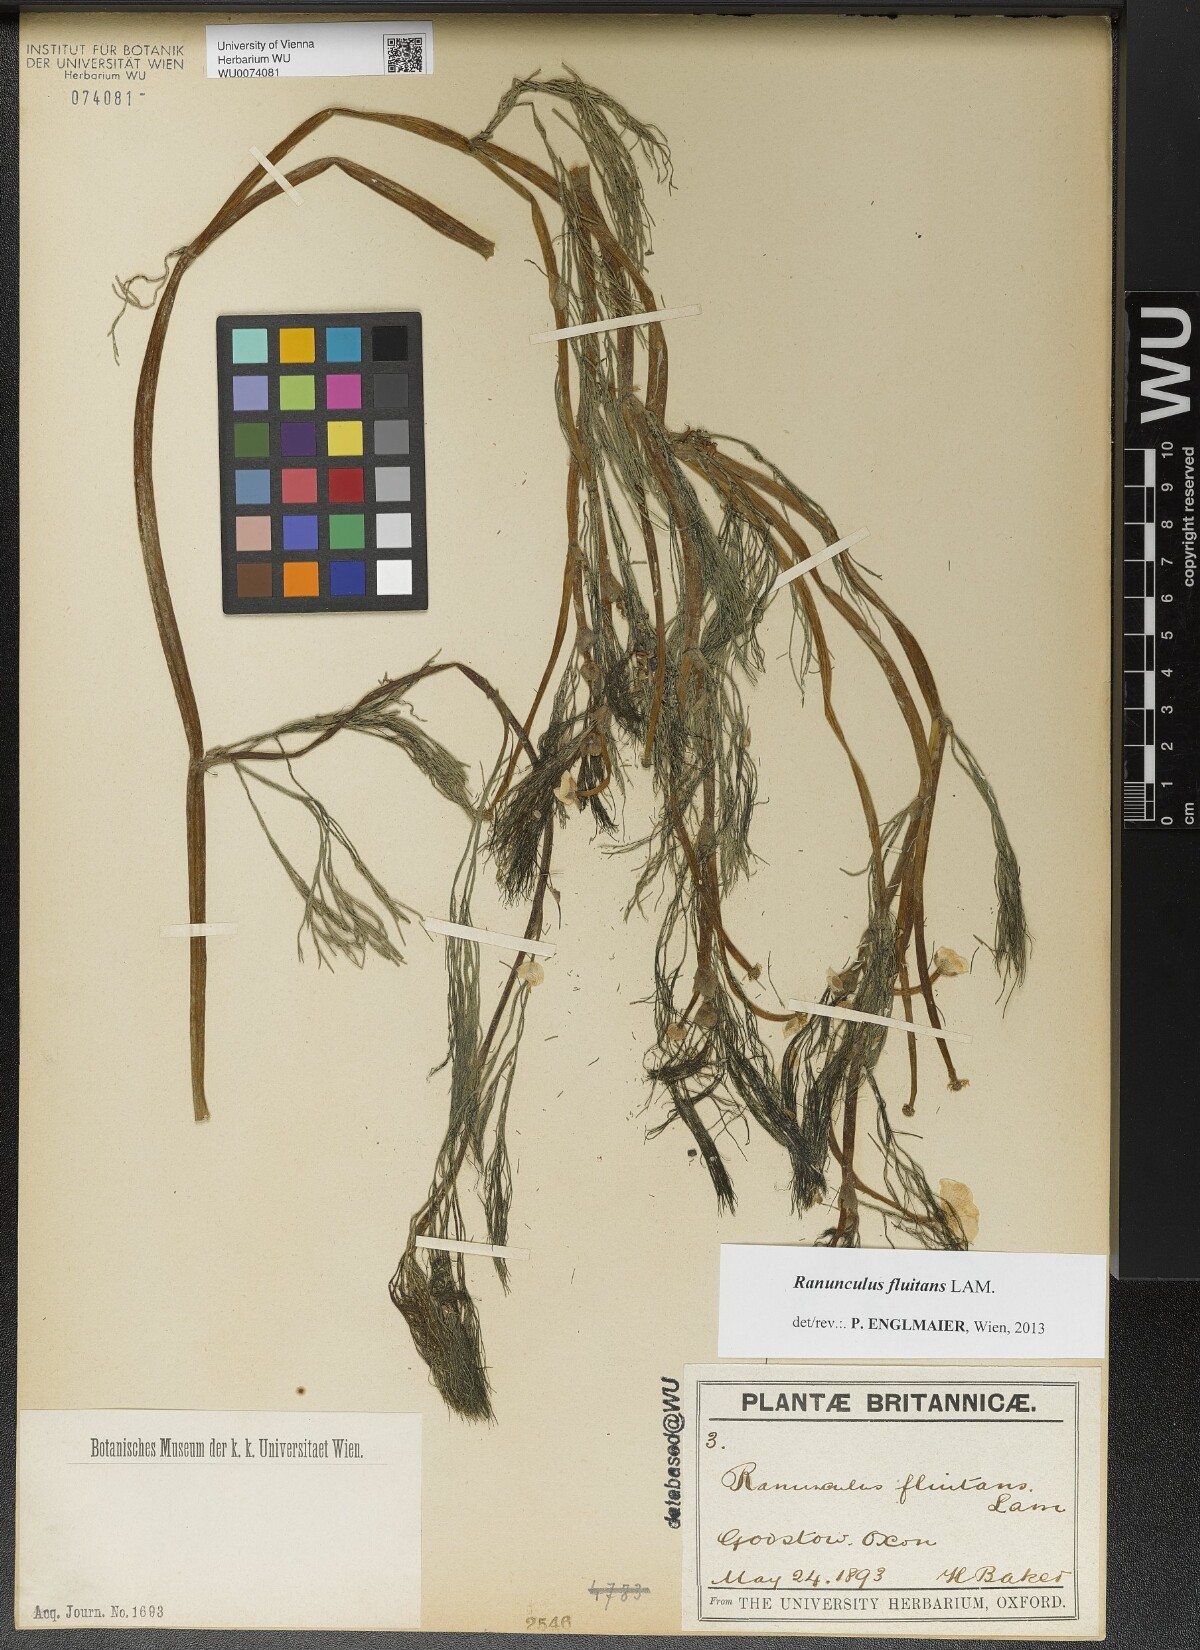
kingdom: Plantae
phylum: Tracheophyta
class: Magnoliopsida
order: Ranunculales
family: Ranunculaceae
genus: Ranunculus
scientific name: Ranunculus fluitans
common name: River water-crowfoot
